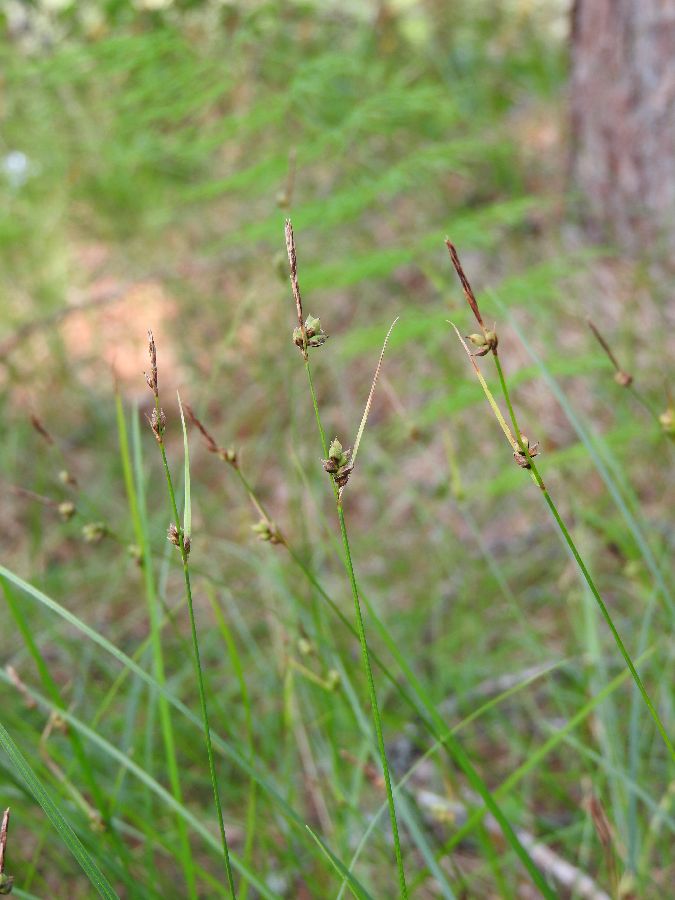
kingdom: Plantae
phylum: Tracheophyta
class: Liliopsida
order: Poales
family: Cyperaceae
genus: Carex
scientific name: Carex globularis
